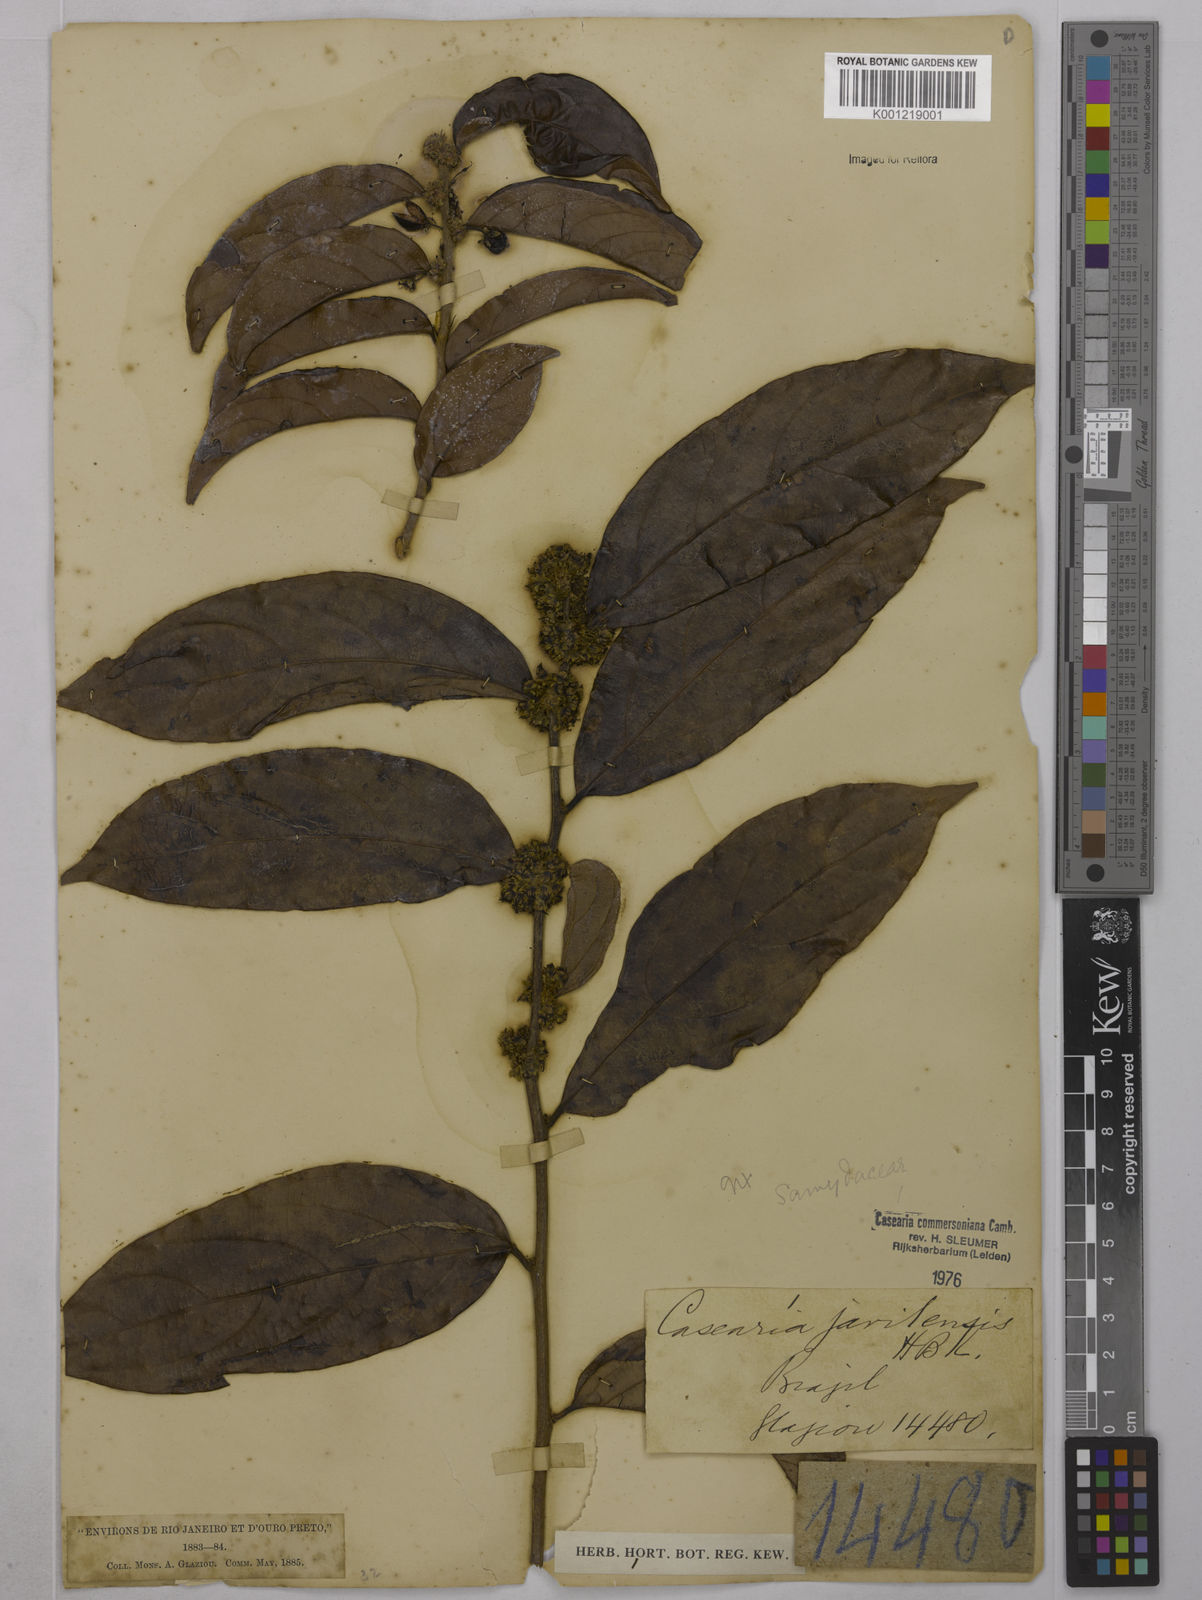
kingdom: Plantae
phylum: Tracheophyta
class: Magnoliopsida
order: Malpighiales
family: Salicaceae
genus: Piparea
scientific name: Piparea multiflora
